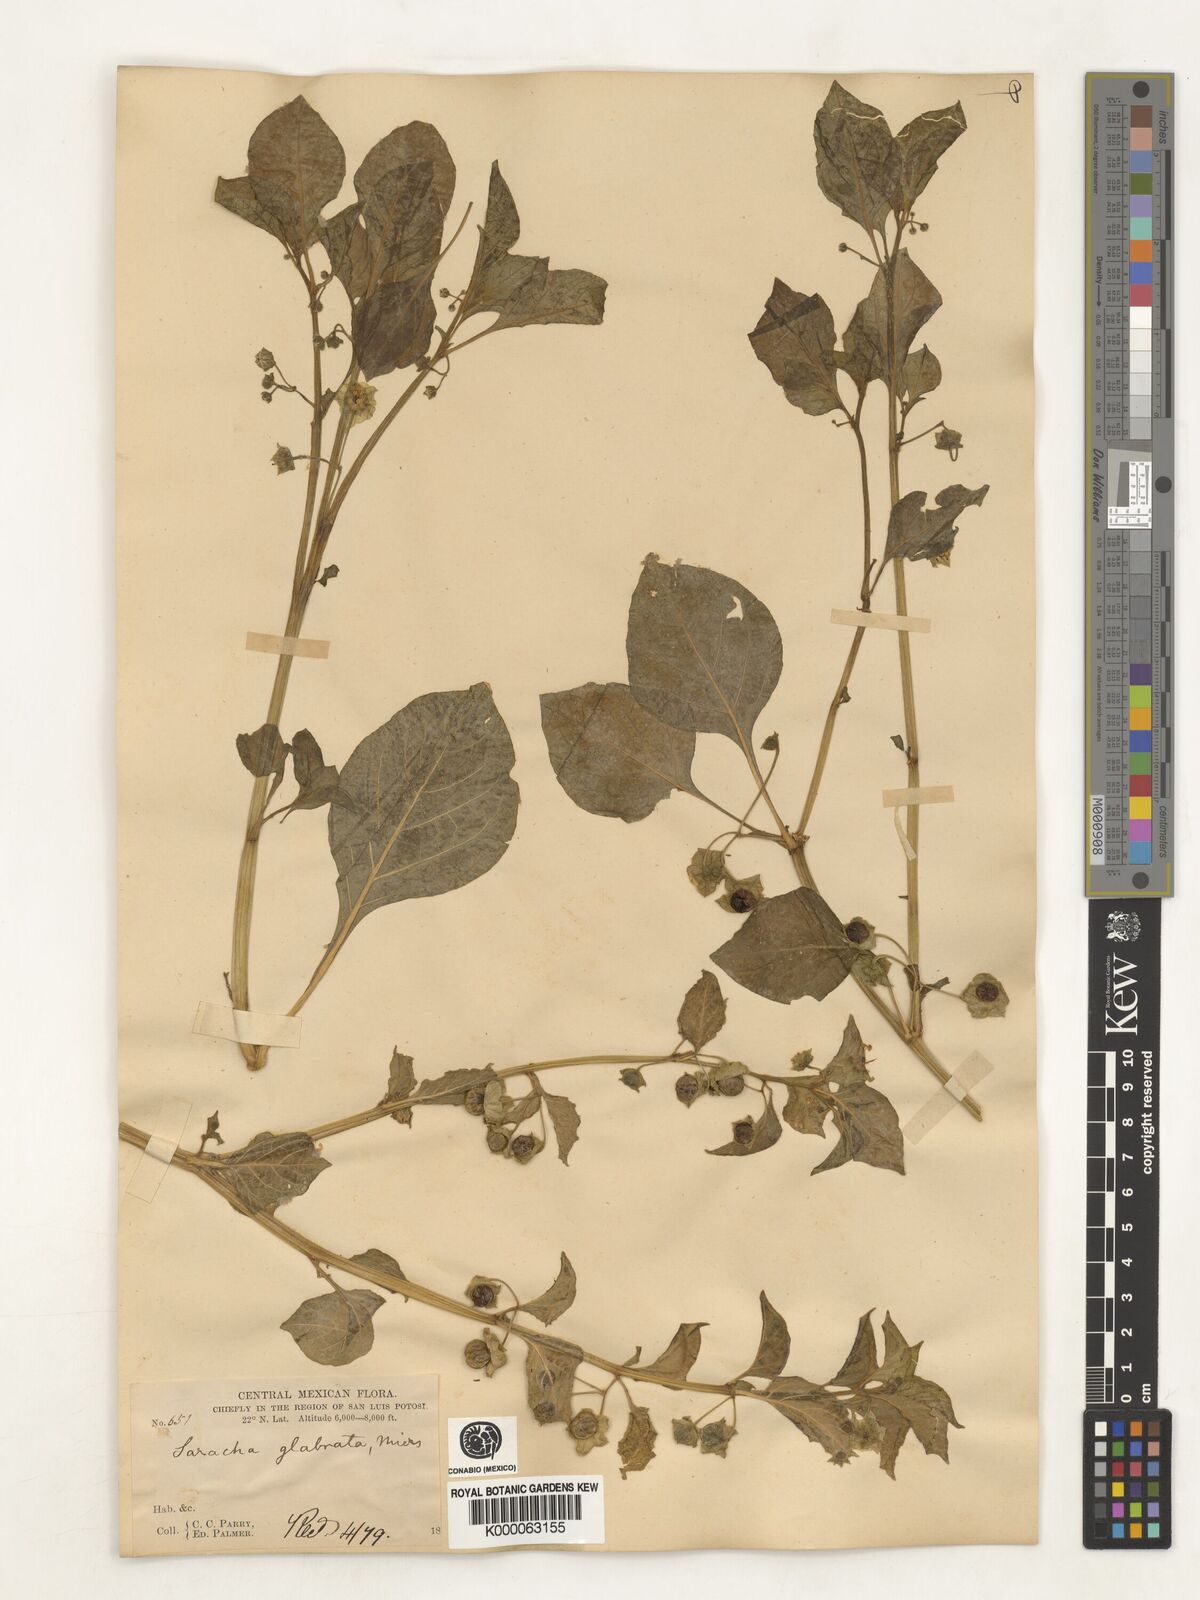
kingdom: Plantae
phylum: Tracheophyta
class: Magnoliopsida
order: Solanales
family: Solanaceae
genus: Saracha
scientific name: Saracha
